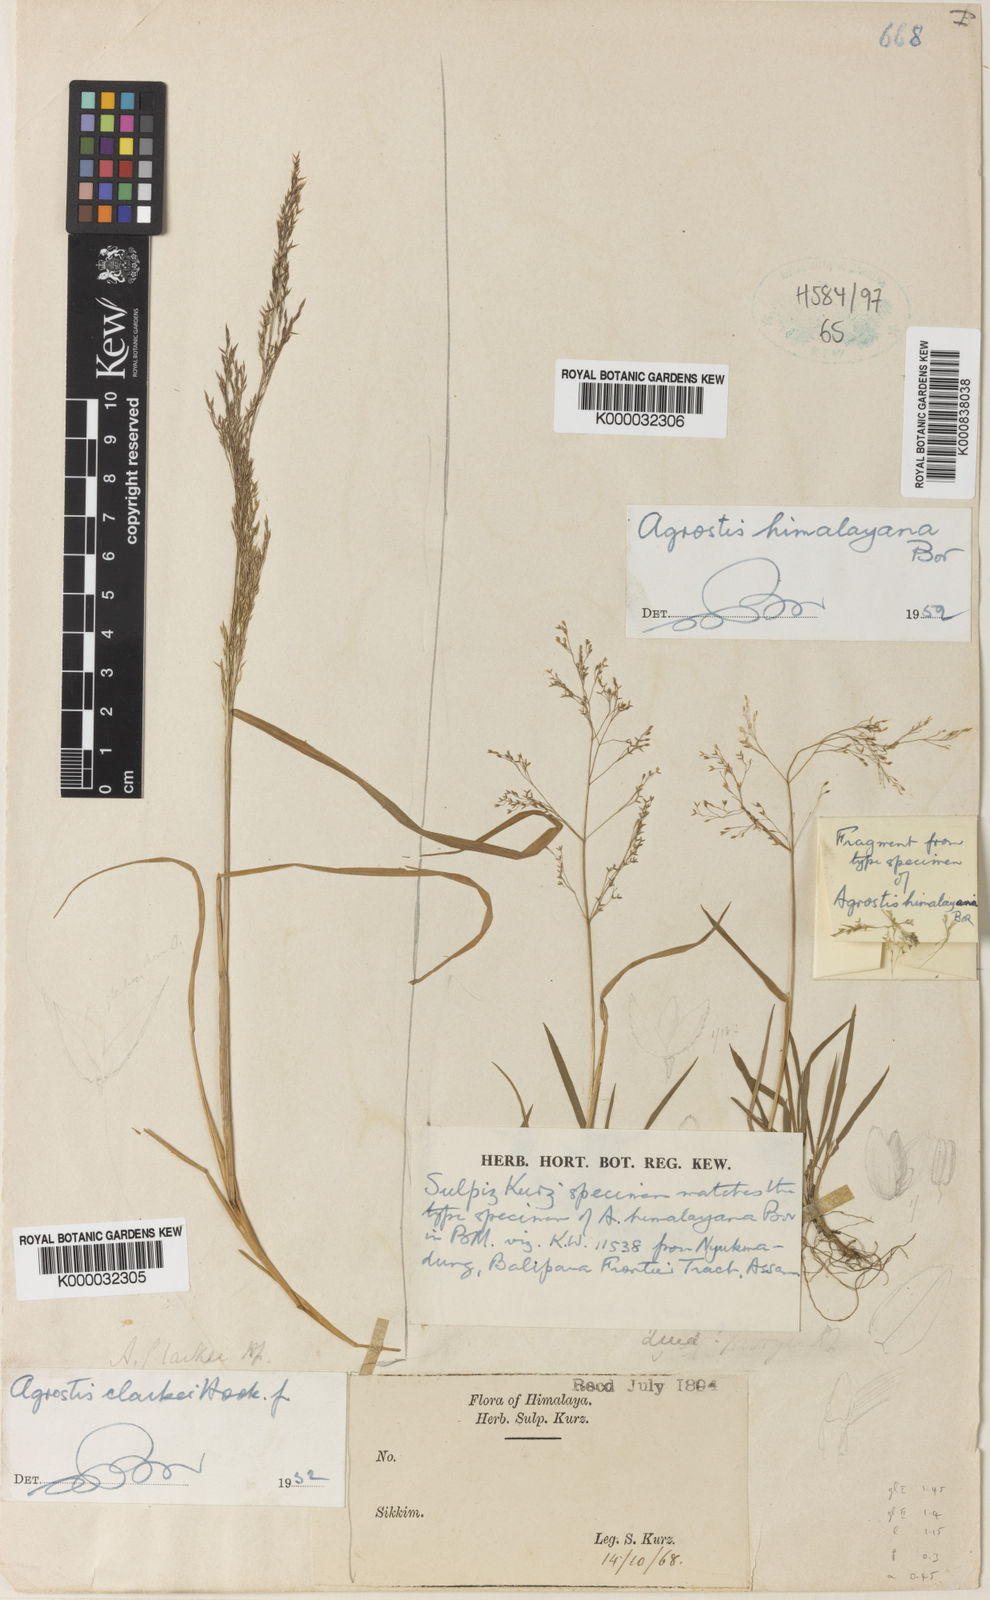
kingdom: Plantae
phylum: Tracheophyta
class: Liliopsida
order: Poales
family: Poaceae
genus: Agrostis
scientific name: Agrostis micrantha
